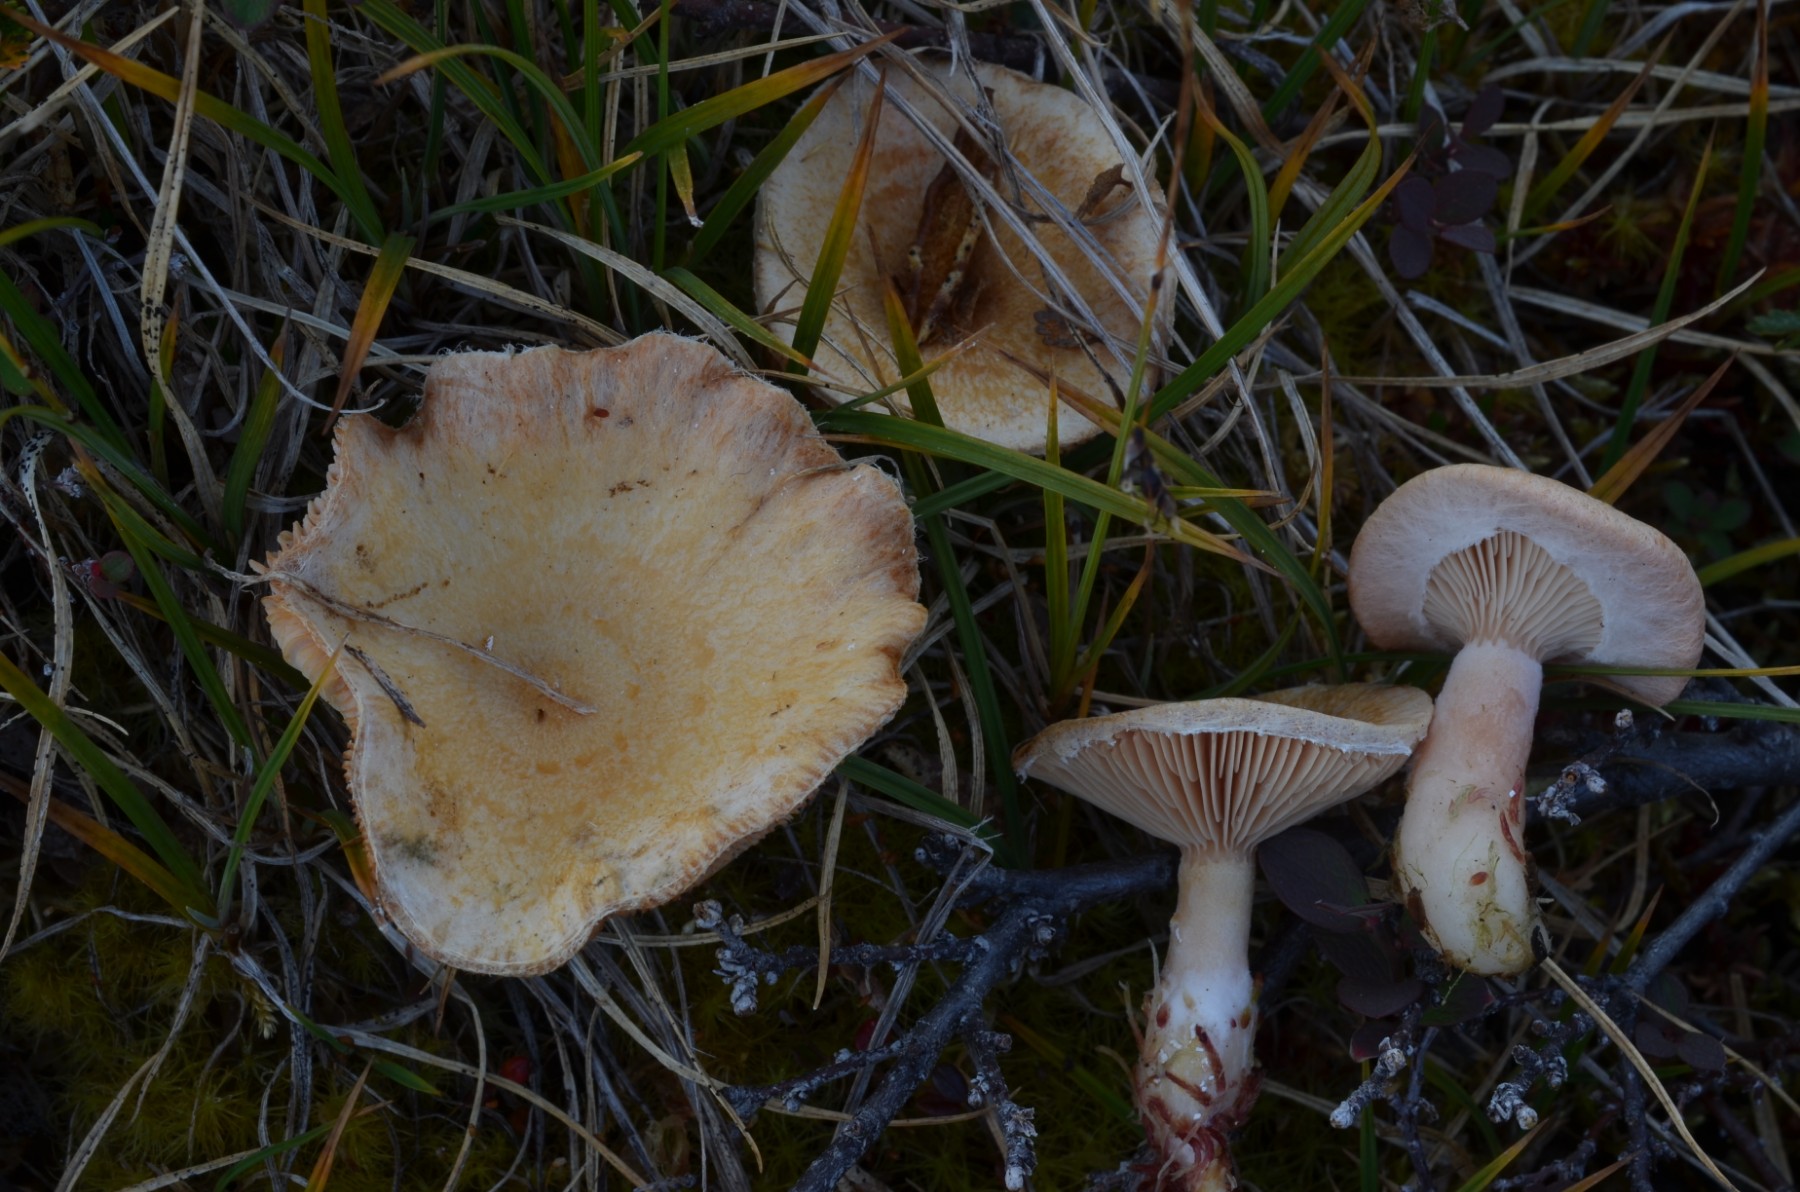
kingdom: Fungi
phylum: Basidiomycota
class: Agaricomycetes
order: Russulales
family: Russulaceae
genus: Lactarius
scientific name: Lactarius torminosus
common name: skægget mælkehat
